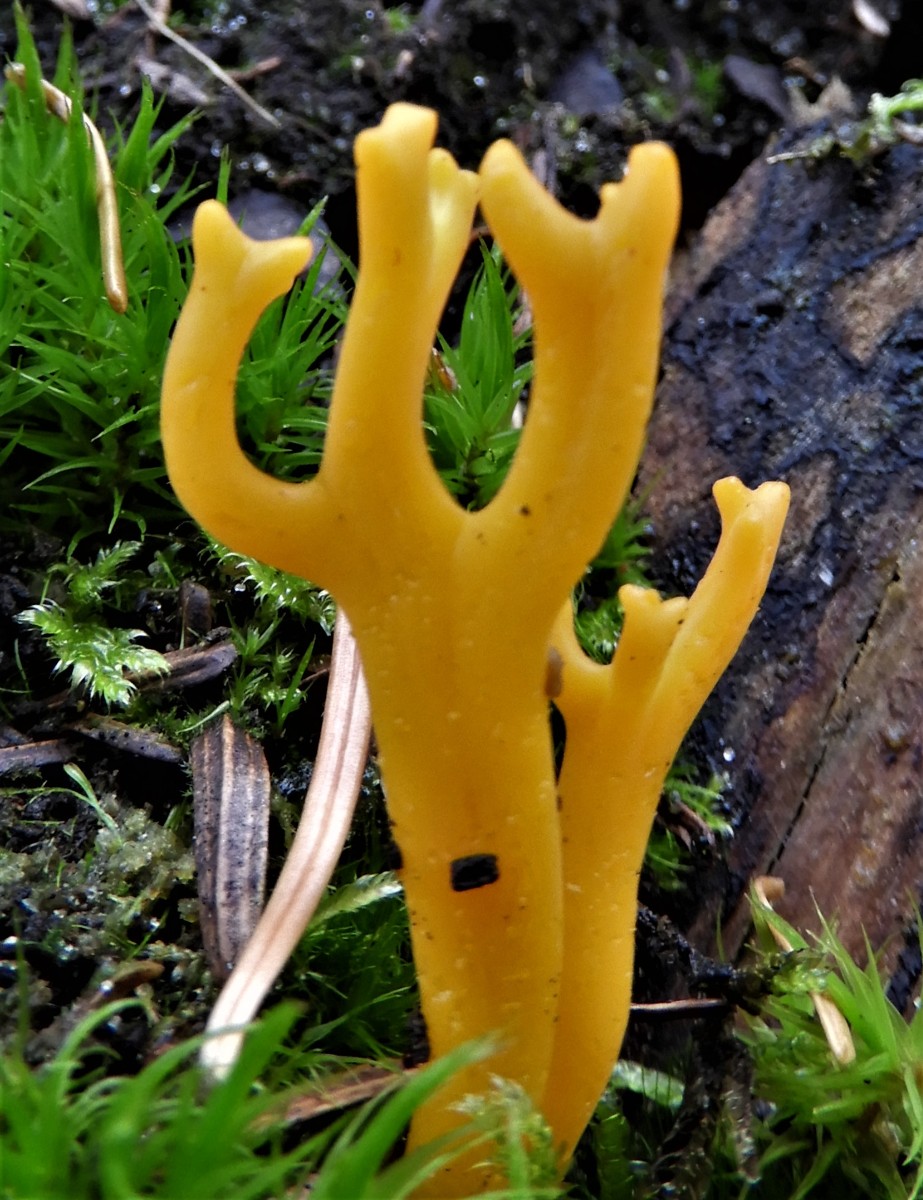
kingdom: Fungi
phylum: Basidiomycota
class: Dacrymycetes
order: Dacrymycetales
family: Dacrymycetaceae
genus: Calocera
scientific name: Calocera viscosa
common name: almindelig guldgaffel
